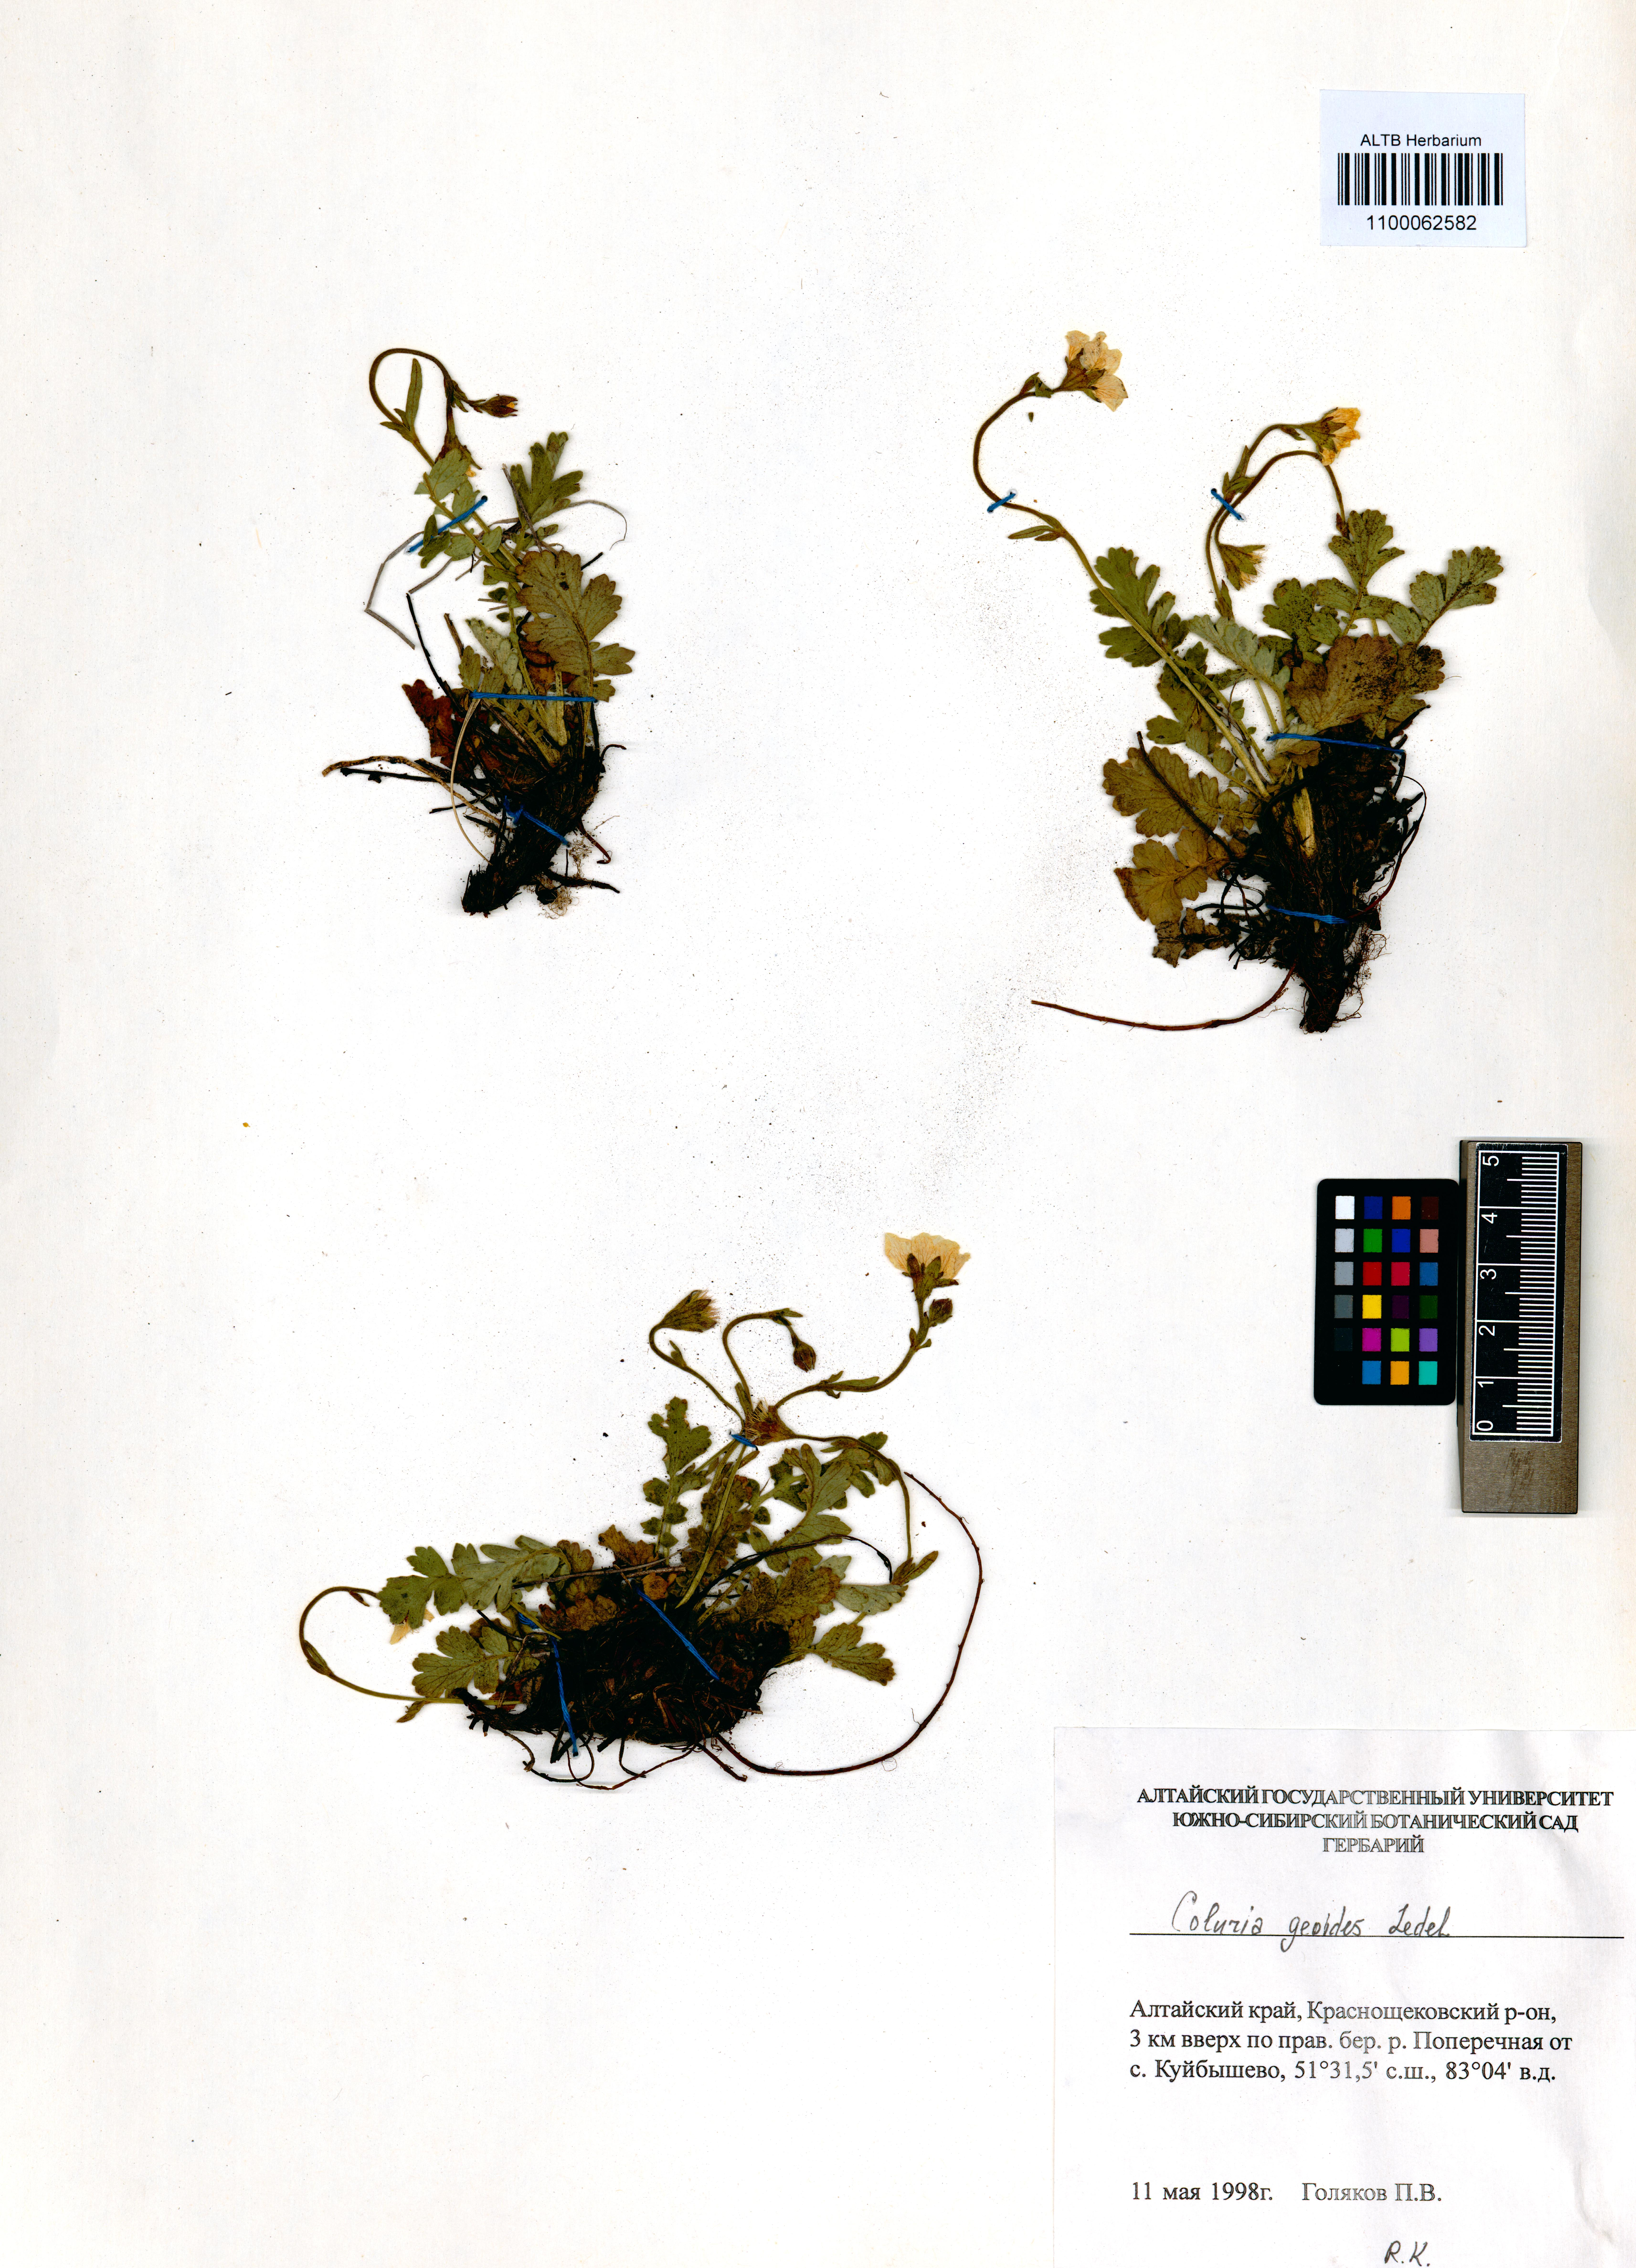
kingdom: Plantae
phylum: Tracheophyta
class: Magnoliopsida
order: Rosales
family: Rosaceae
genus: Geum
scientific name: Geum geoides
